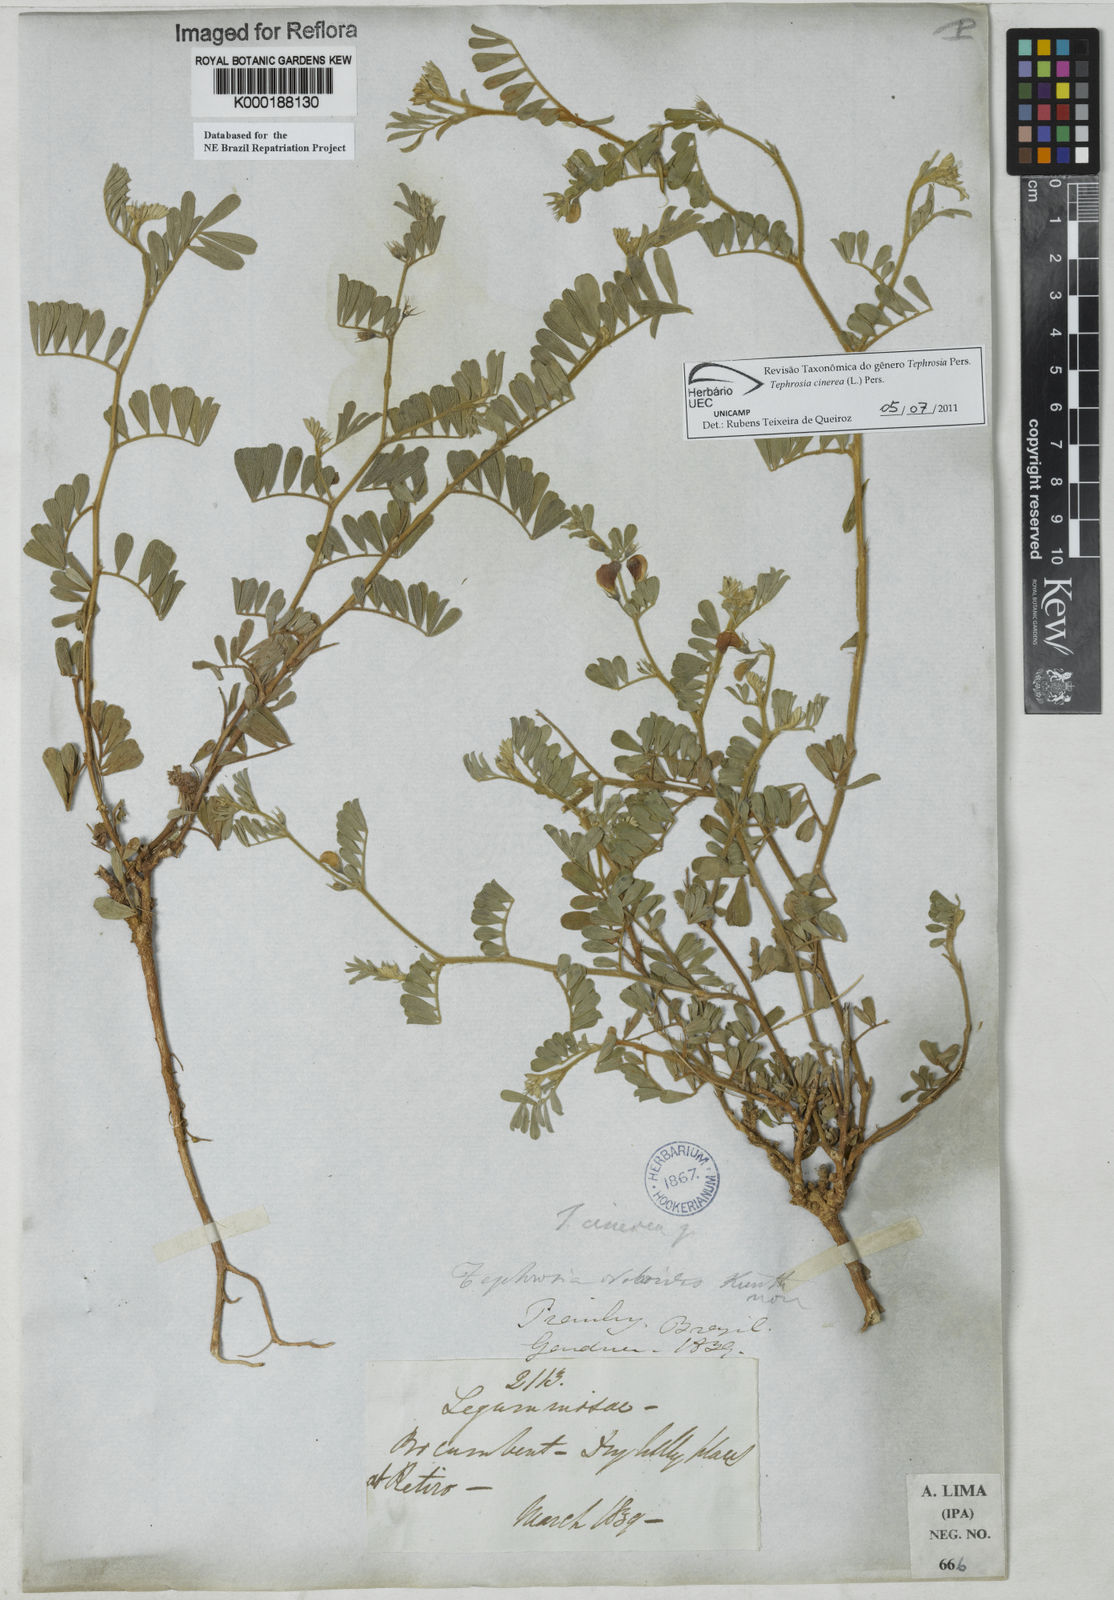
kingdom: Plantae
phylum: Tracheophyta
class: Polypodiopsida
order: Polypodiales
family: Polypodiaceae
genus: Pleopeltis
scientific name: Pleopeltis hirsutissima
